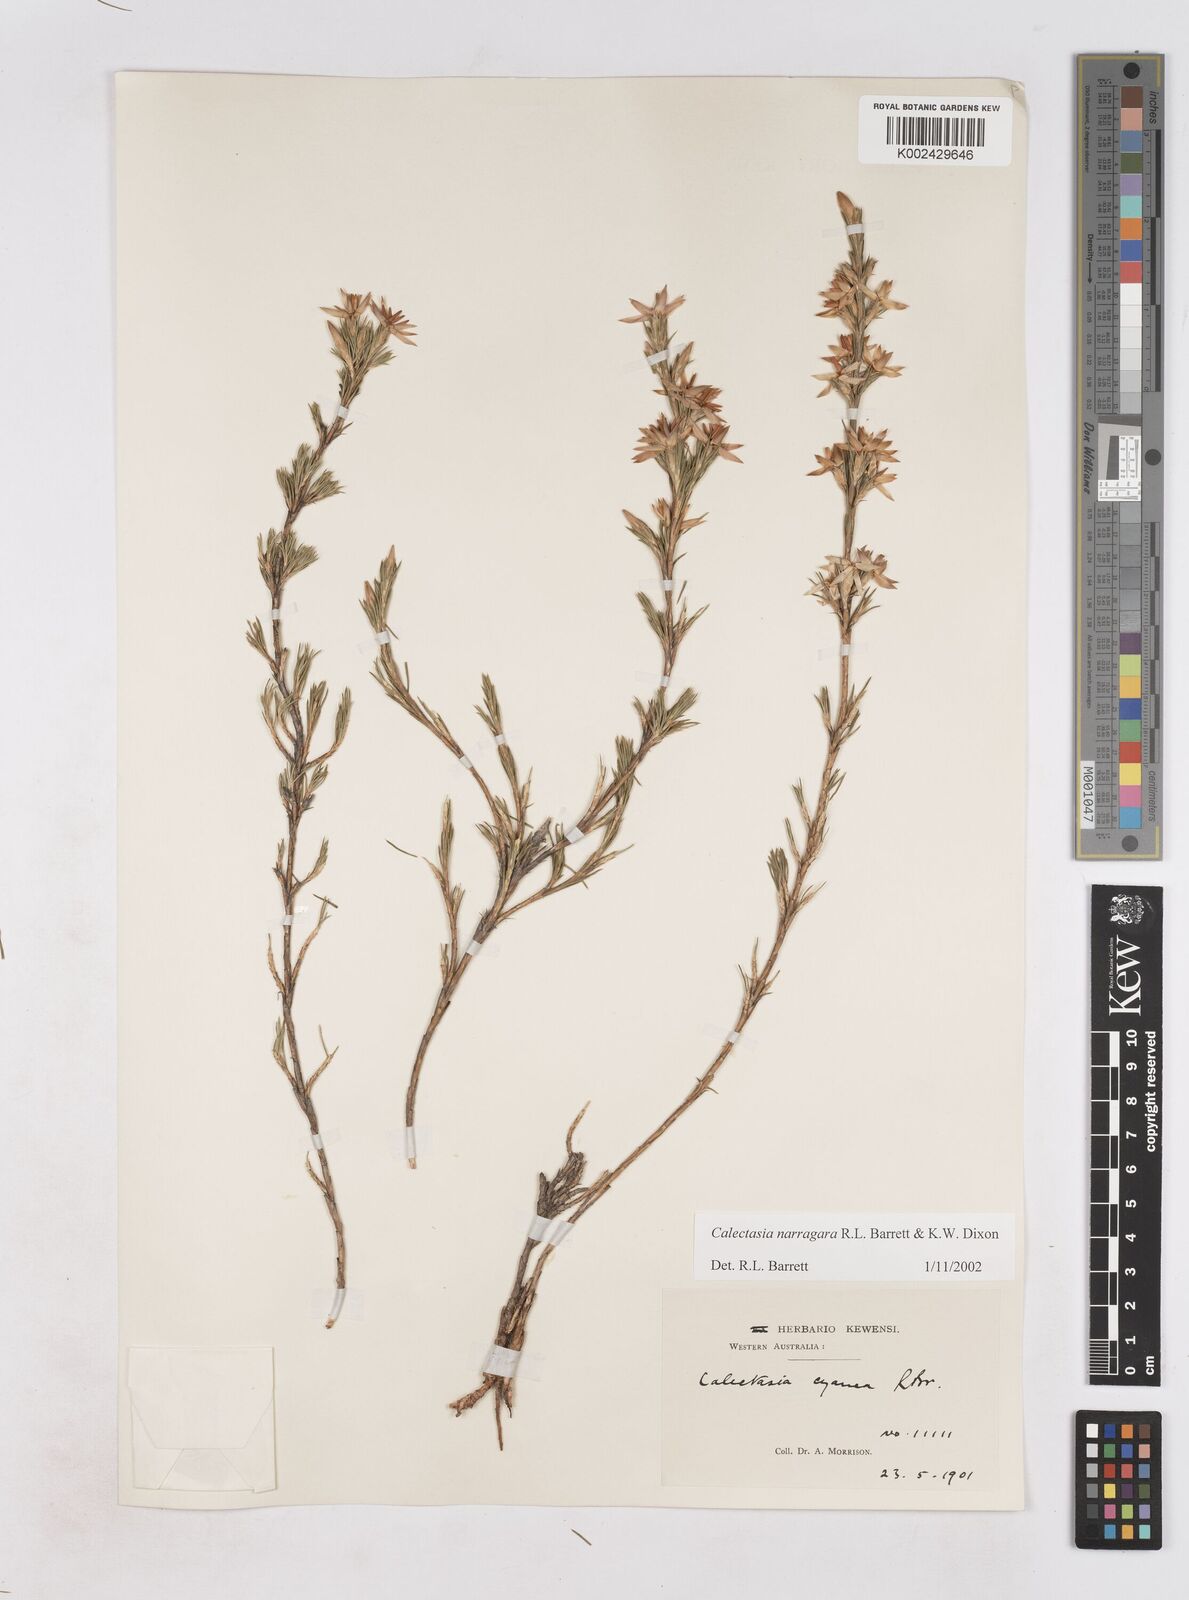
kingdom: Plantae
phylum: Tracheophyta
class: Liliopsida
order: Arecales
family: Dasypogonaceae
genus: Calectasia
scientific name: Calectasia narragara
